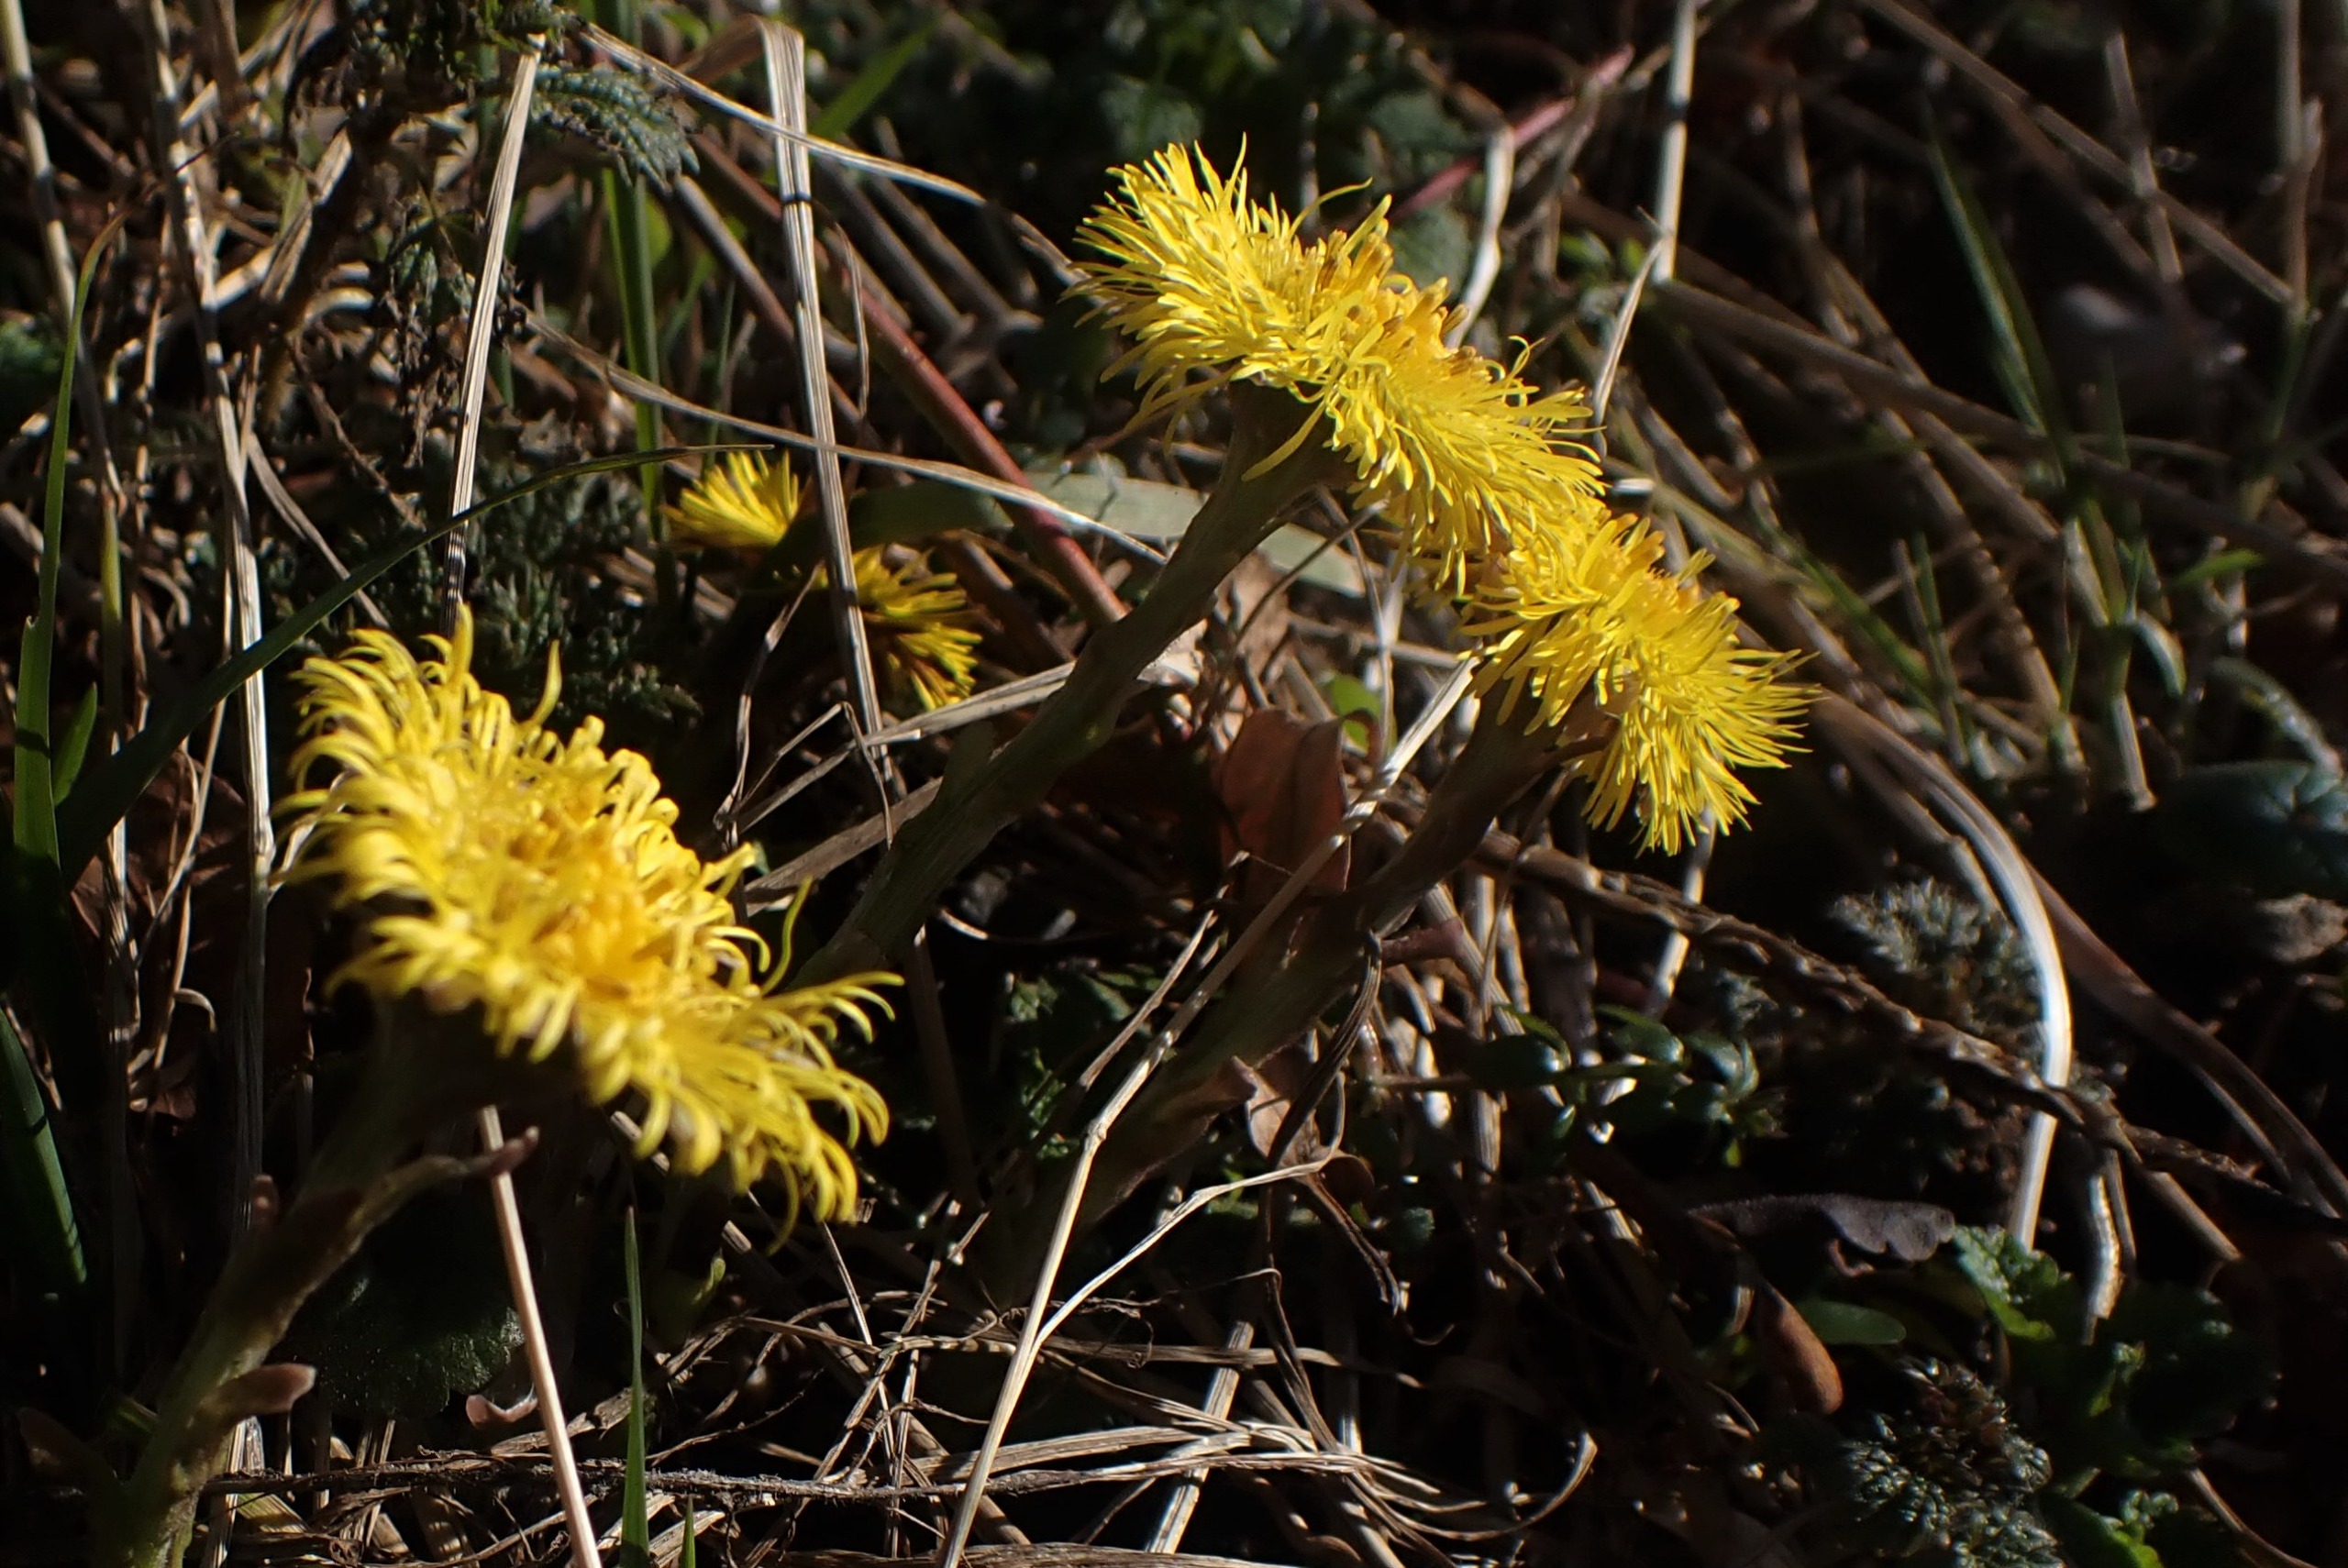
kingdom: Plantae
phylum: Tracheophyta
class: Magnoliopsida
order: Asterales
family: Asteraceae
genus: Tussilago
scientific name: Tussilago farfara
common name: Følfod
